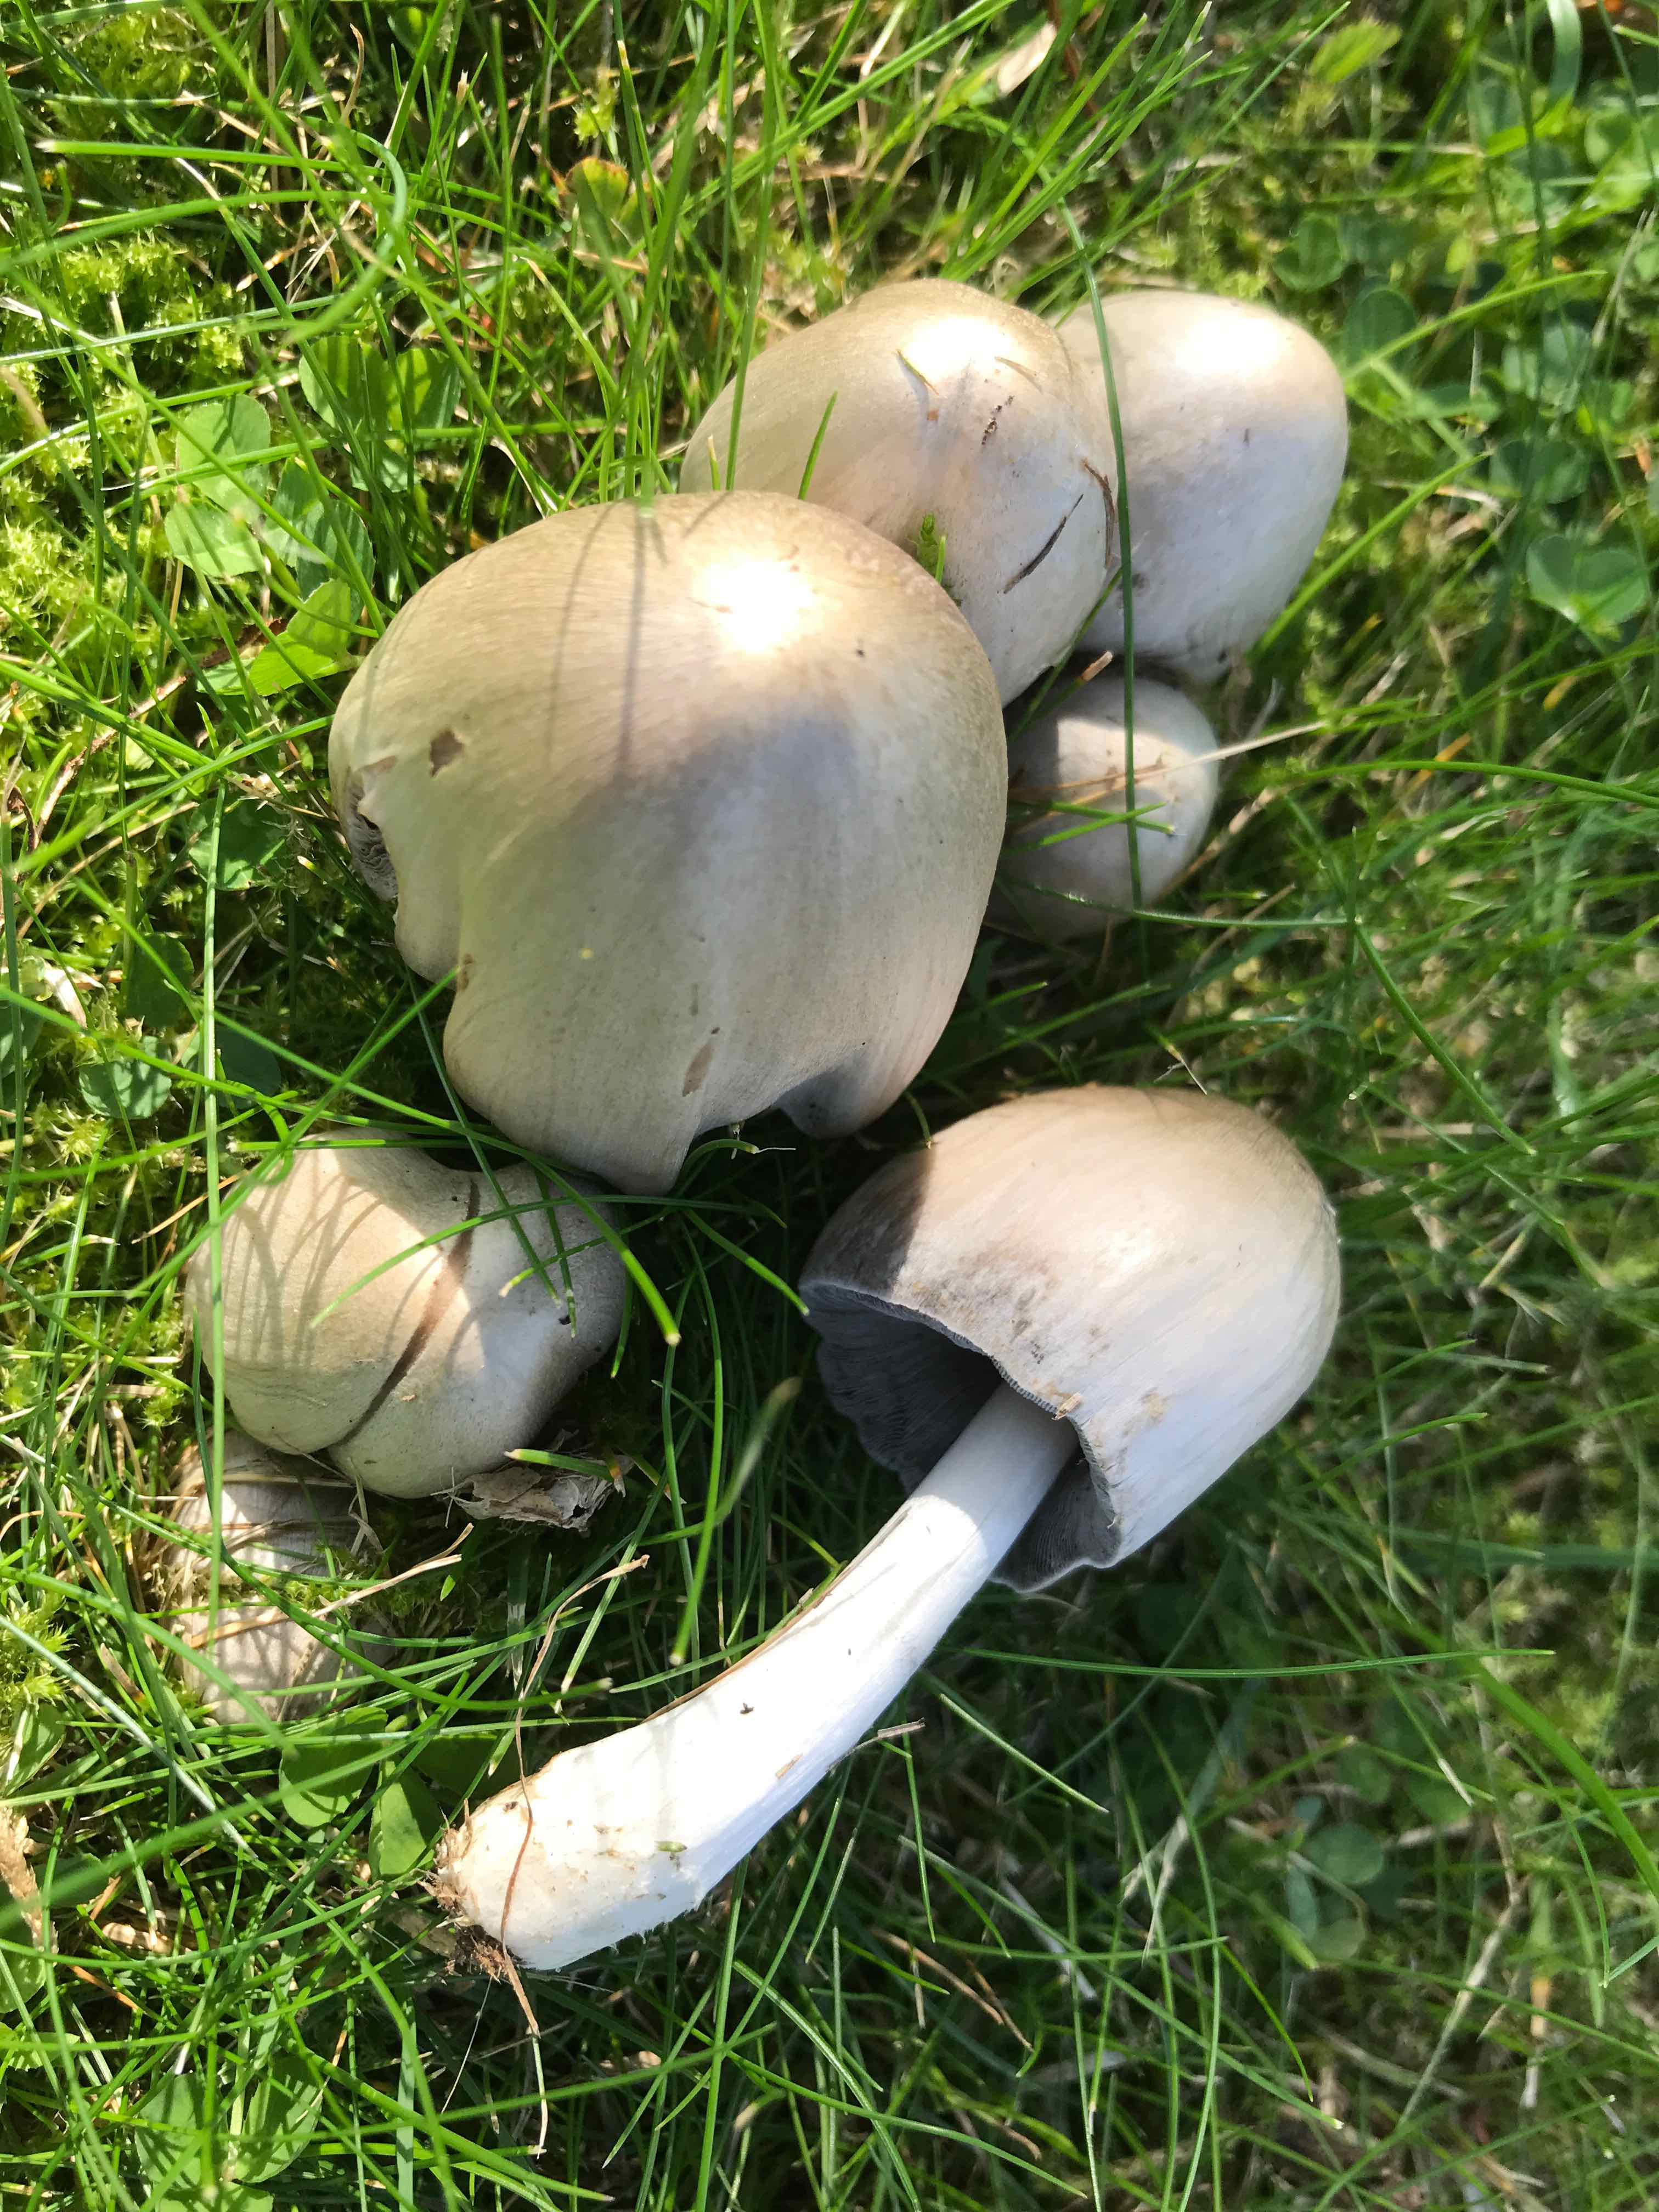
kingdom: Fungi
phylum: Basidiomycota
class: Agaricomycetes
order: Agaricales
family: Psathyrellaceae
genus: Coprinopsis
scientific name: Coprinopsis atramentaria
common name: almindelig blækhat
